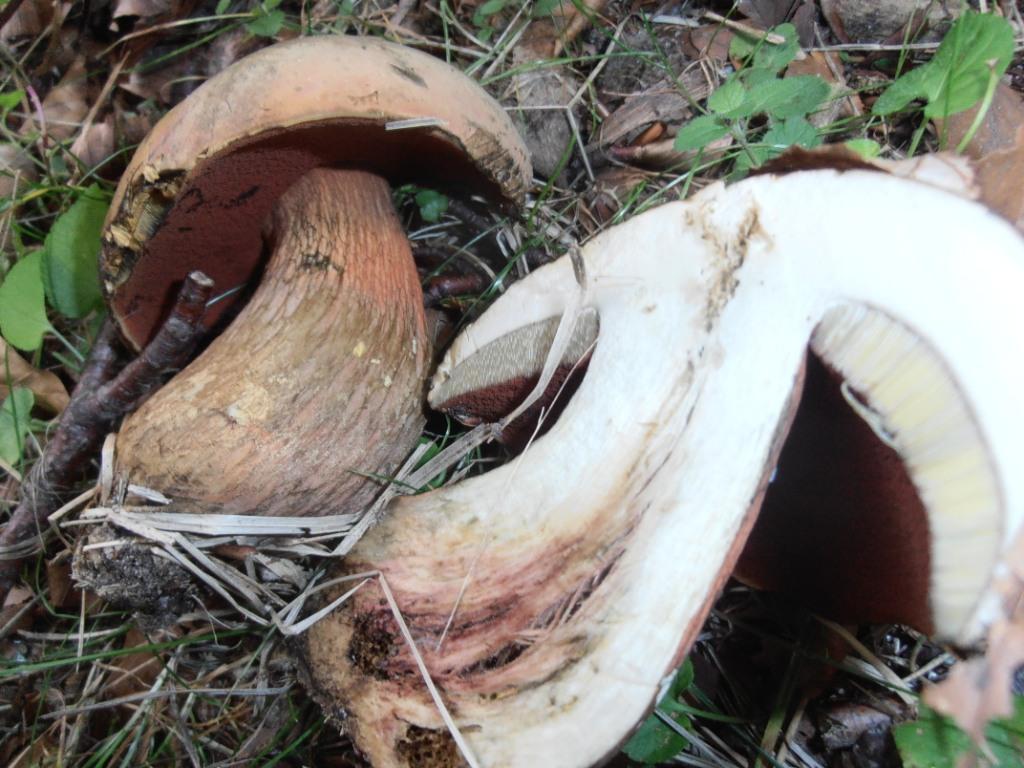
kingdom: Fungi
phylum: Basidiomycota
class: Agaricomycetes
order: Boletales
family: Boletaceae
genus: Suillellus
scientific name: Suillellus luridus
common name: netstokket indigorørhat
